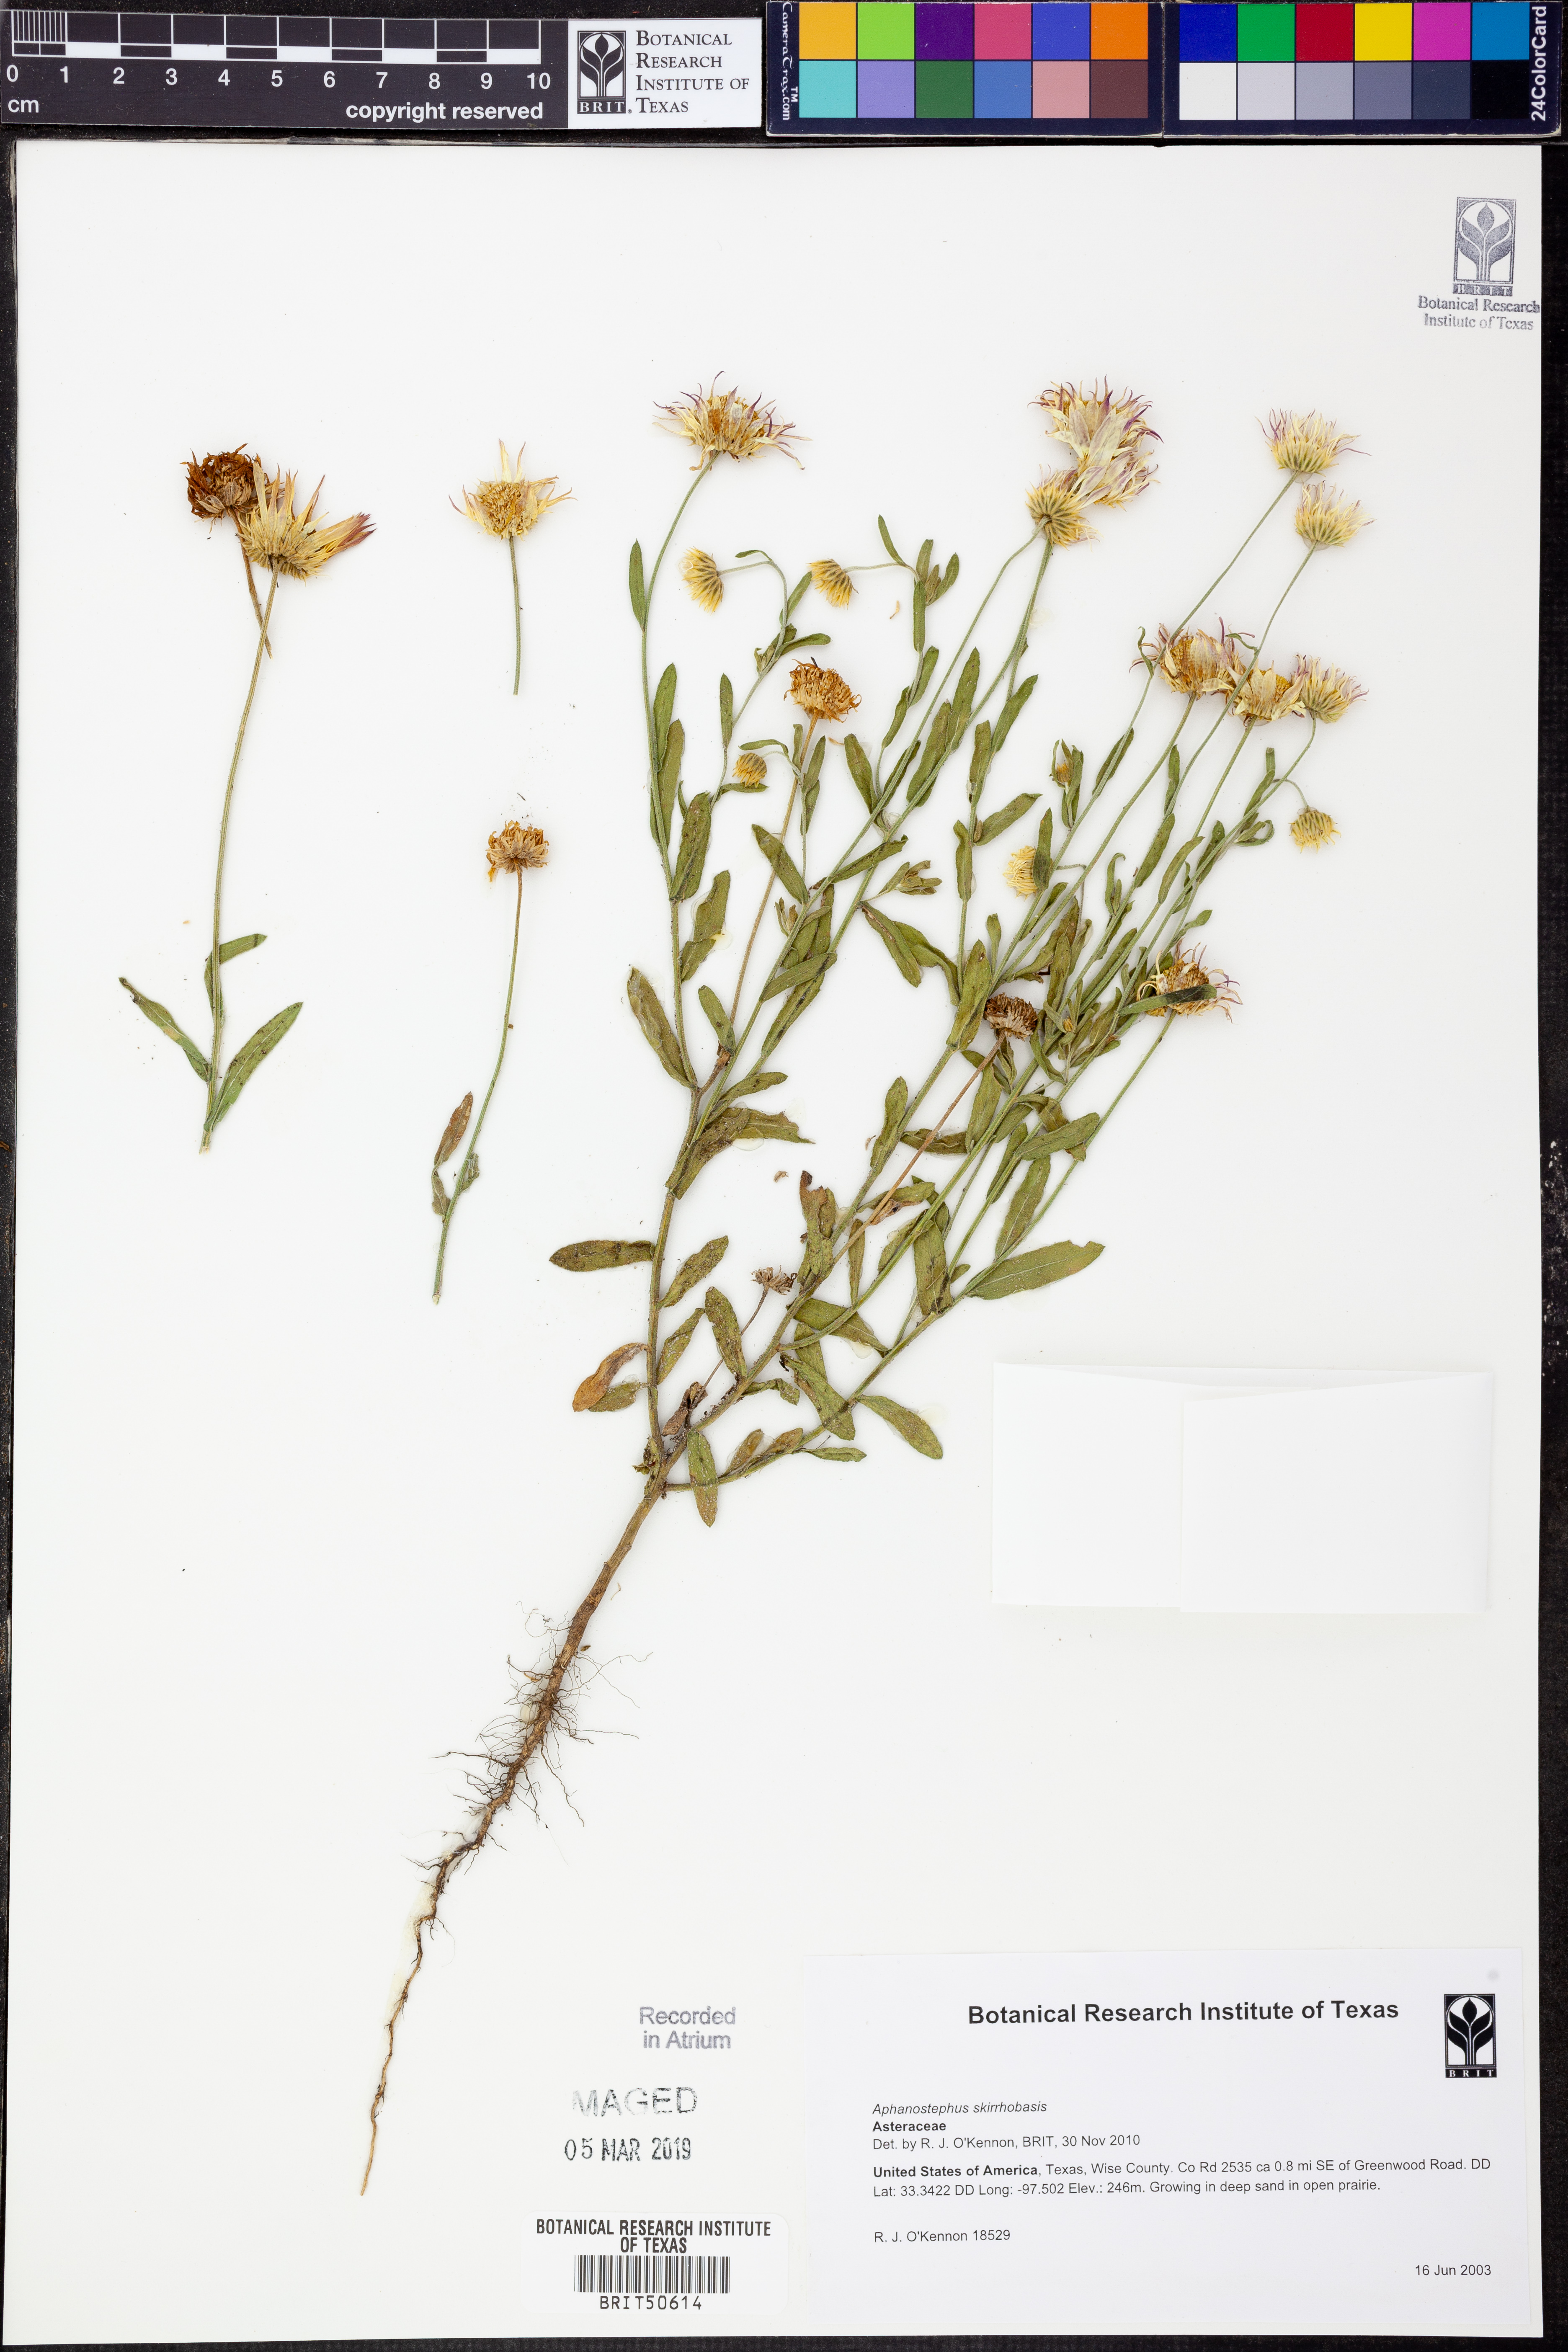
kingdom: Plantae
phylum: Tracheophyta
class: Magnoliopsida
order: Asterales
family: Asteraceae
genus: Aphanostephus
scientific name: Aphanostephus skirrhobasis
